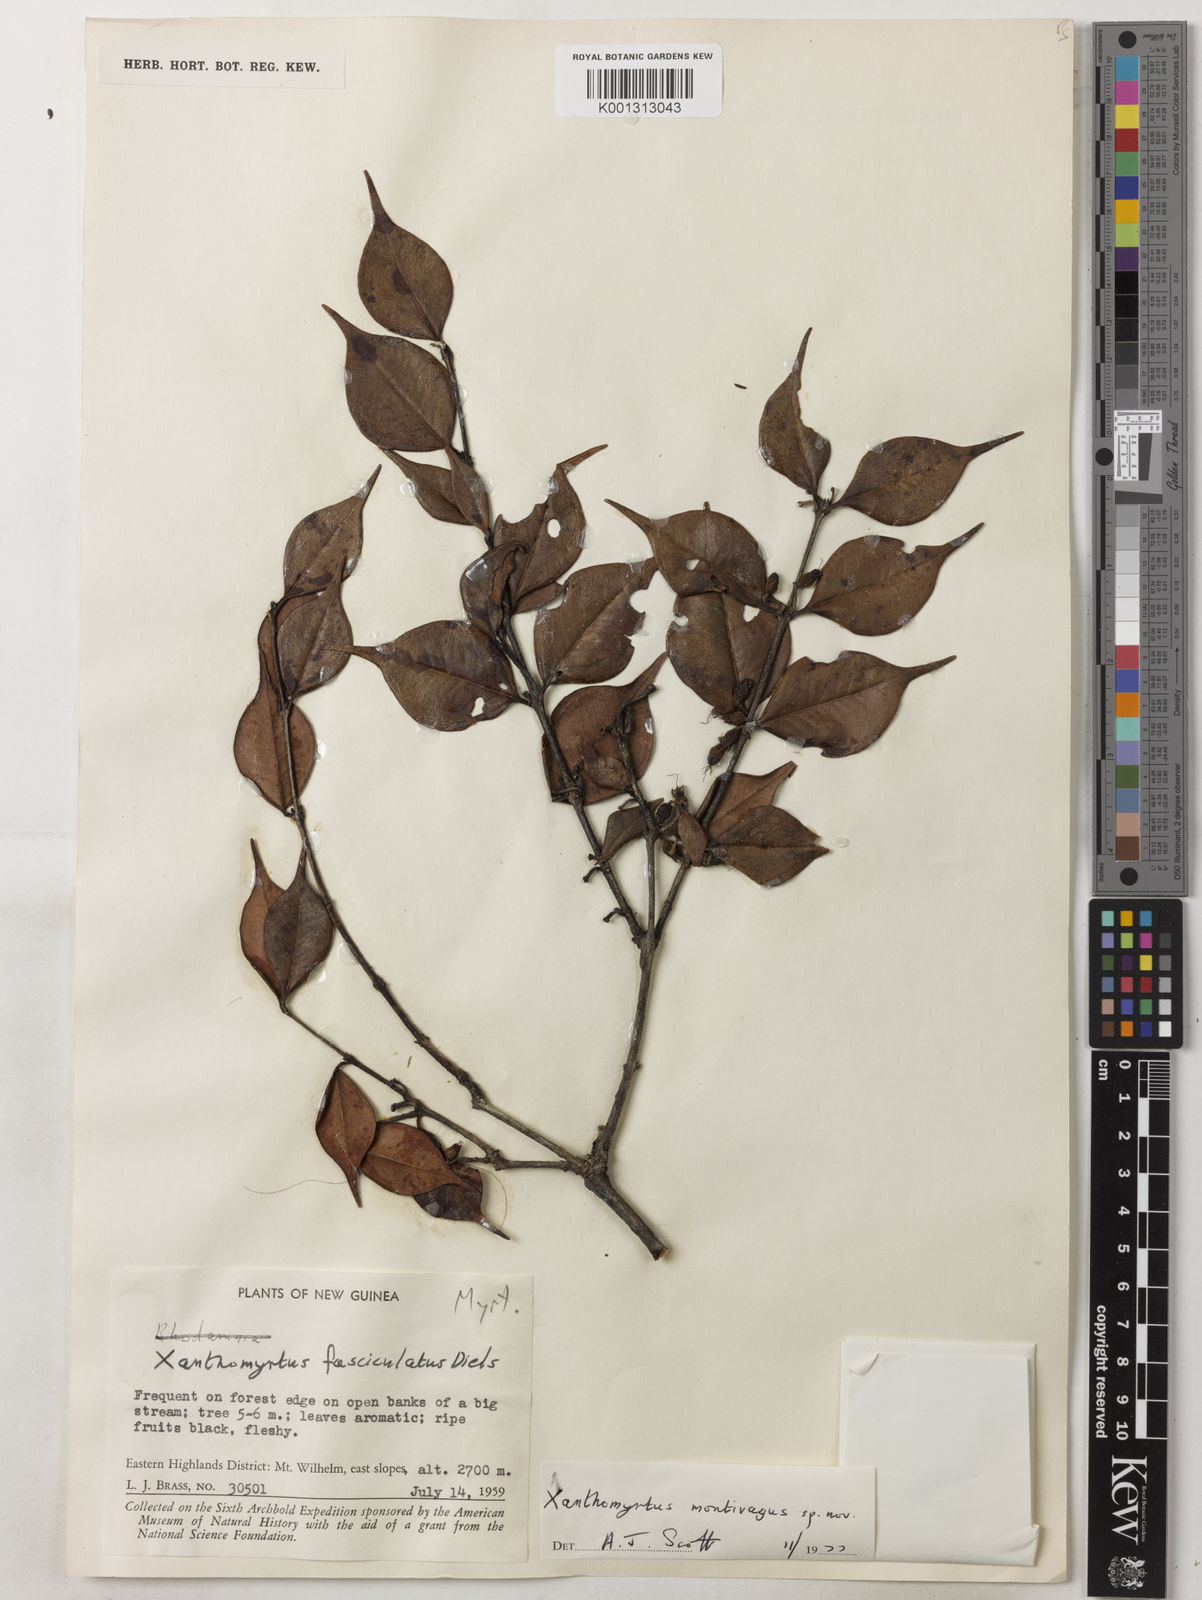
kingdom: Plantae
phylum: Tracheophyta
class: Magnoliopsida
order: Myrtales
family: Myrtaceae
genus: Xanthomyrtus
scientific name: Xanthomyrtus montivaga
